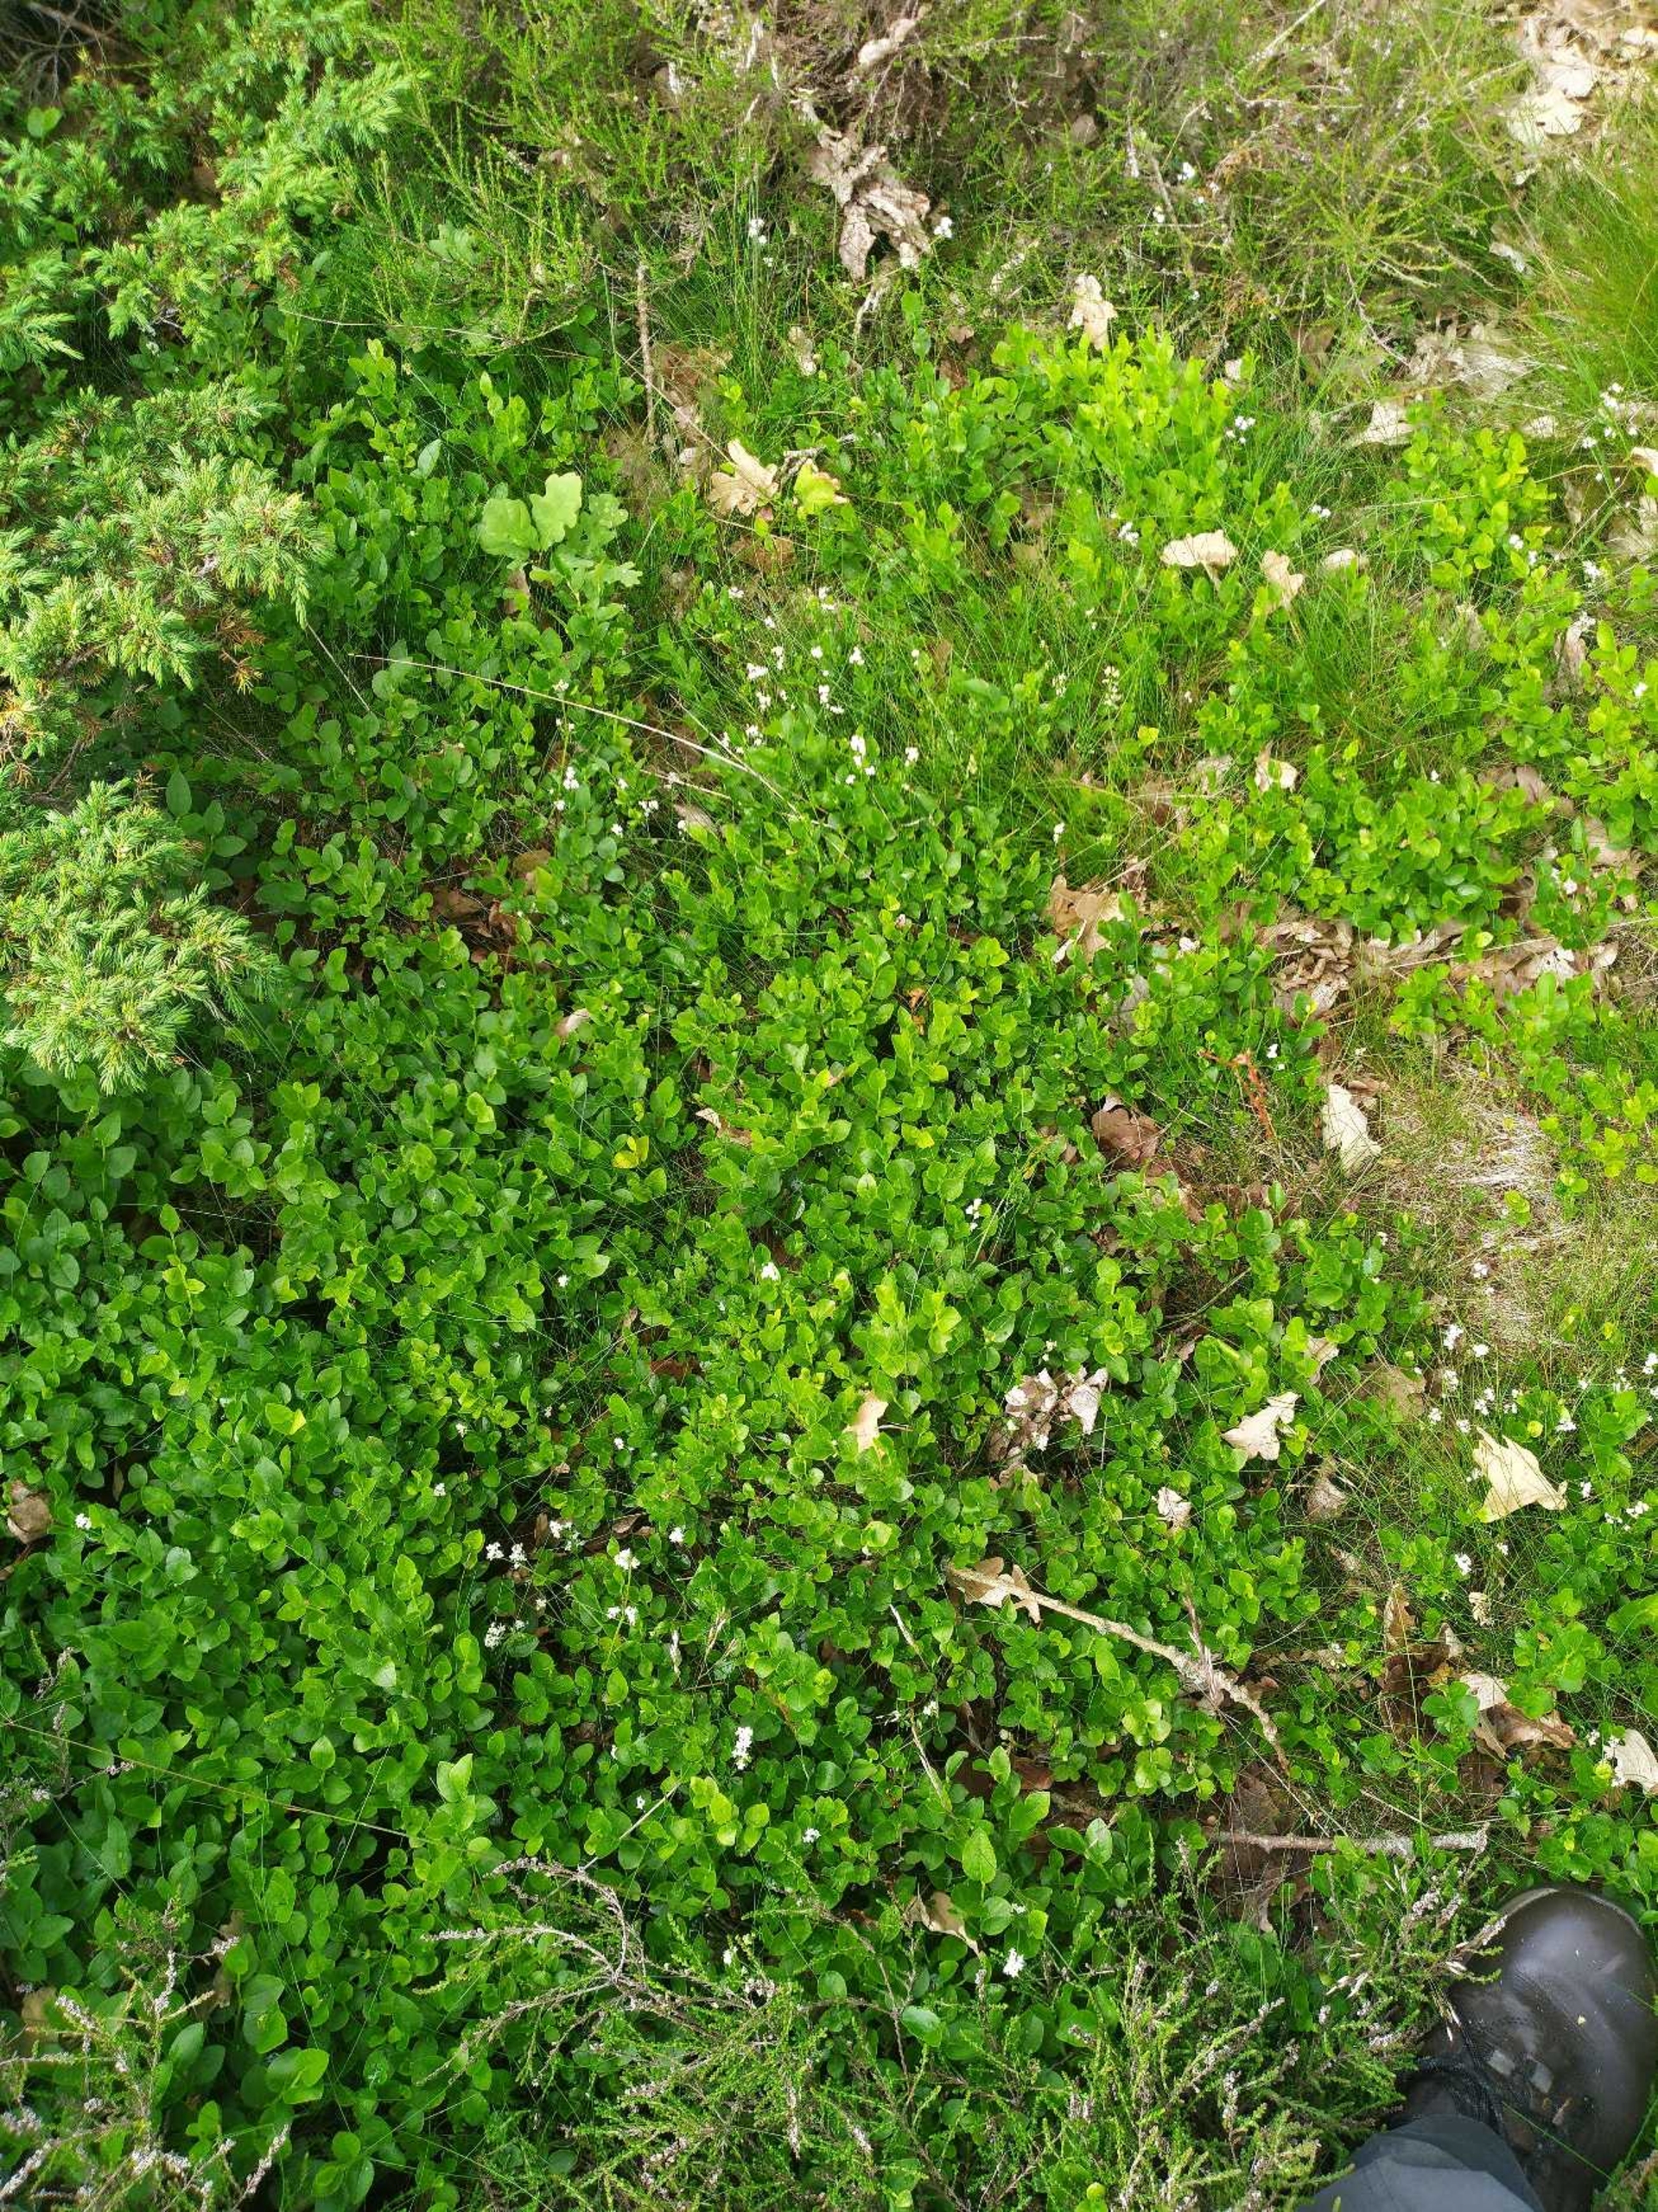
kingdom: Plantae
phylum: Tracheophyta
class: Magnoliopsida
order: Ericales
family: Ericaceae
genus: Vaccinium
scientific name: Vaccinium myrtillus
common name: Blåbær
